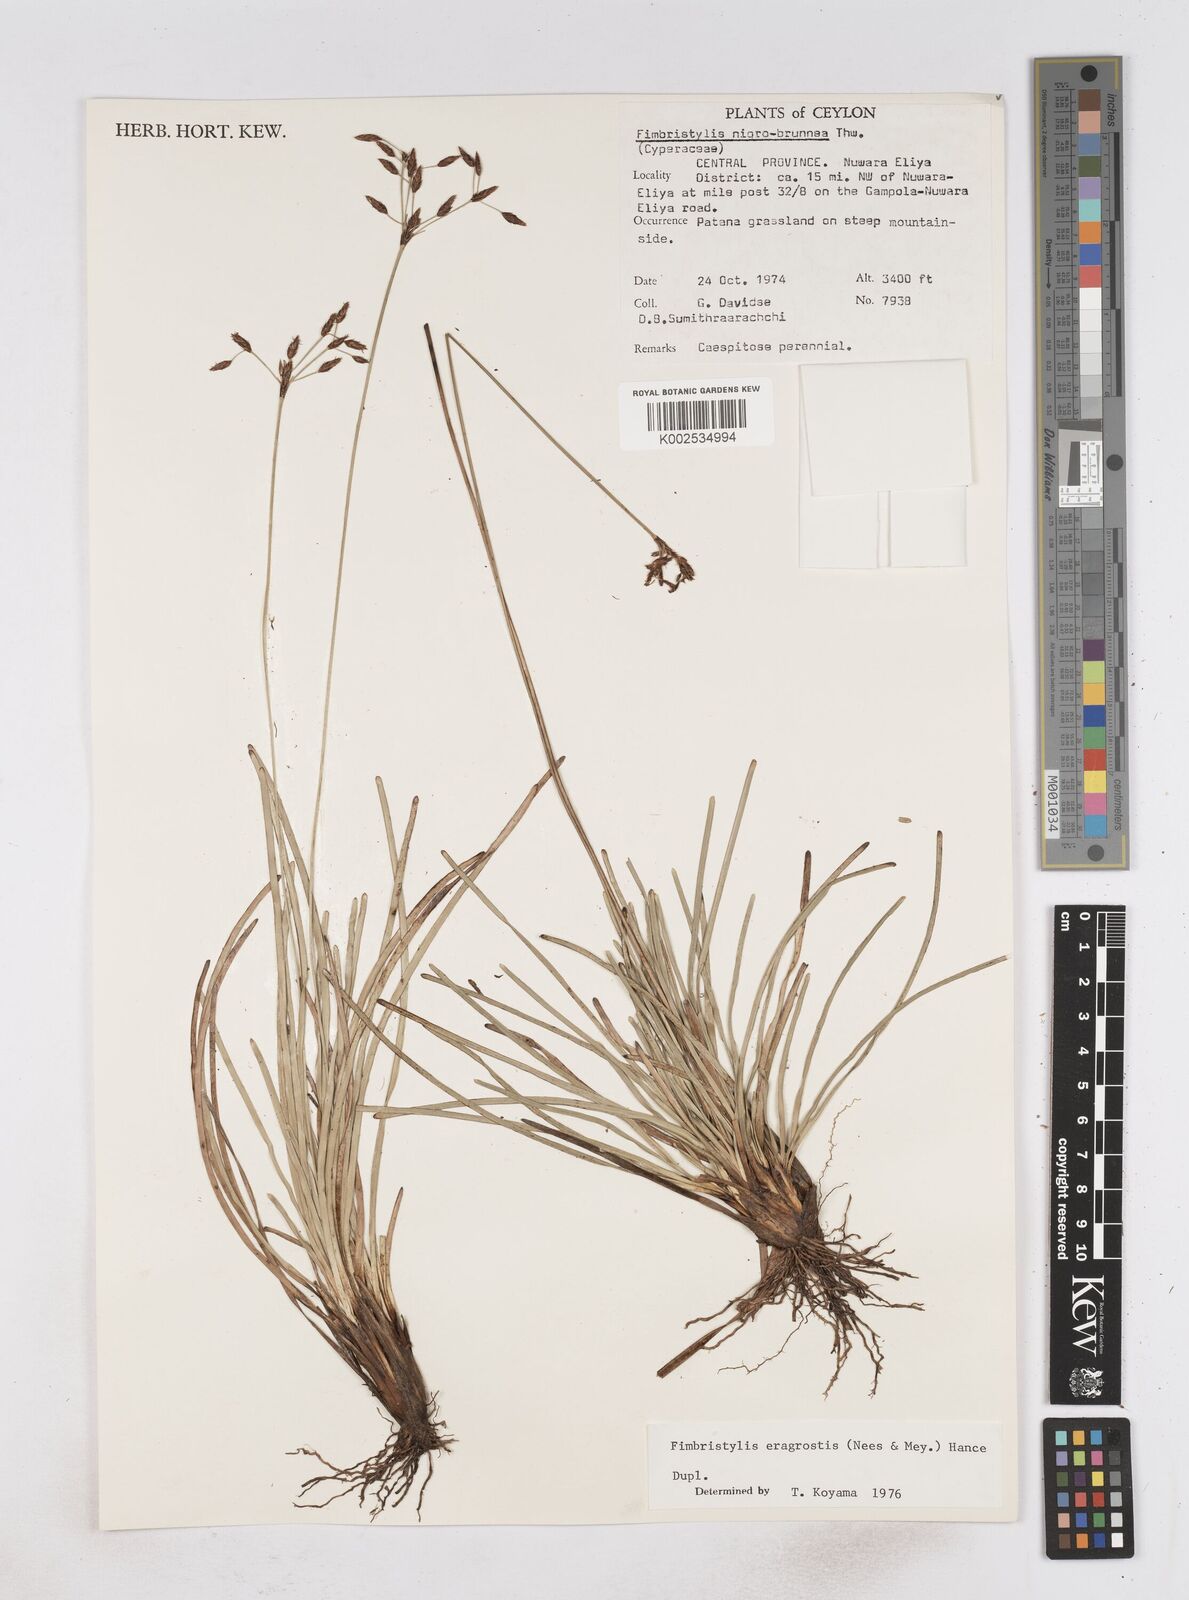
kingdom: Plantae
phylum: Tracheophyta
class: Liliopsida
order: Poales
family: Cyperaceae
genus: Fimbristylis
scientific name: Fimbristylis nigrobrunnea
